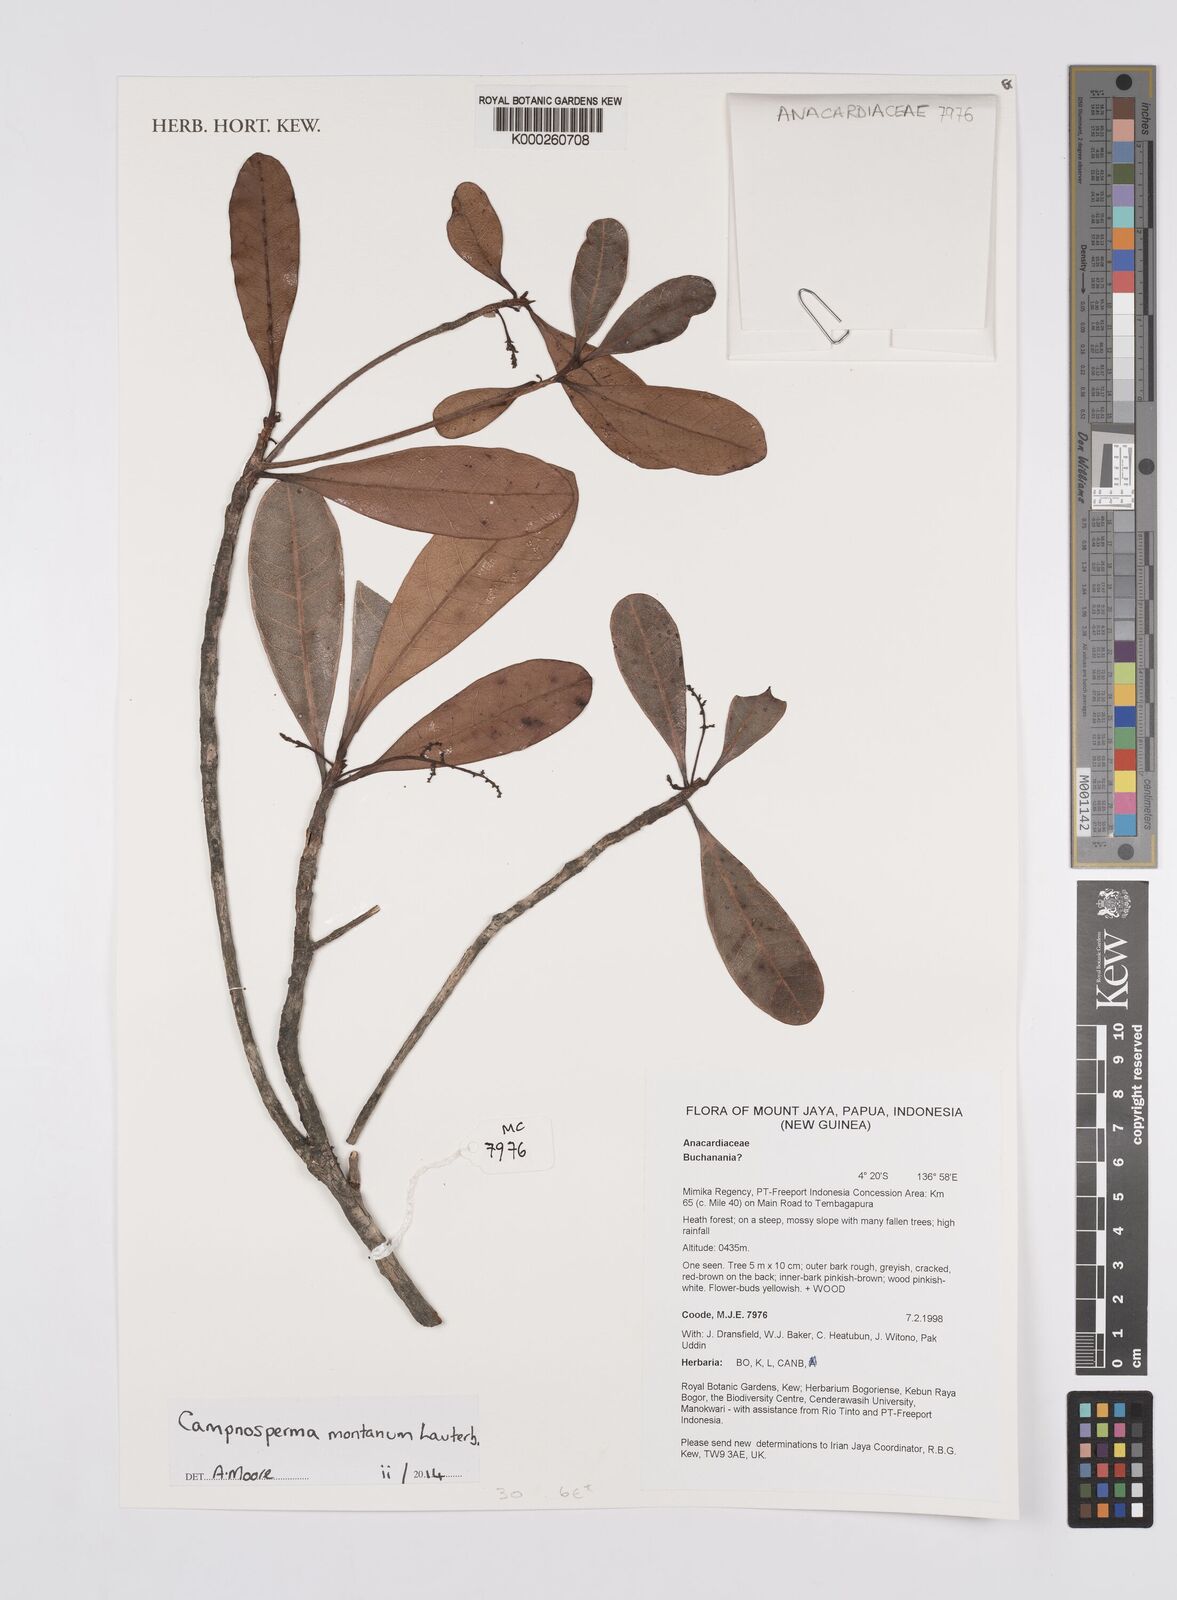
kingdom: Plantae
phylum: Tracheophyta
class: Magnoliopsida
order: Sapindales
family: Anacardiaceae
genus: Campnosperma
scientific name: Campnosperma montanum
